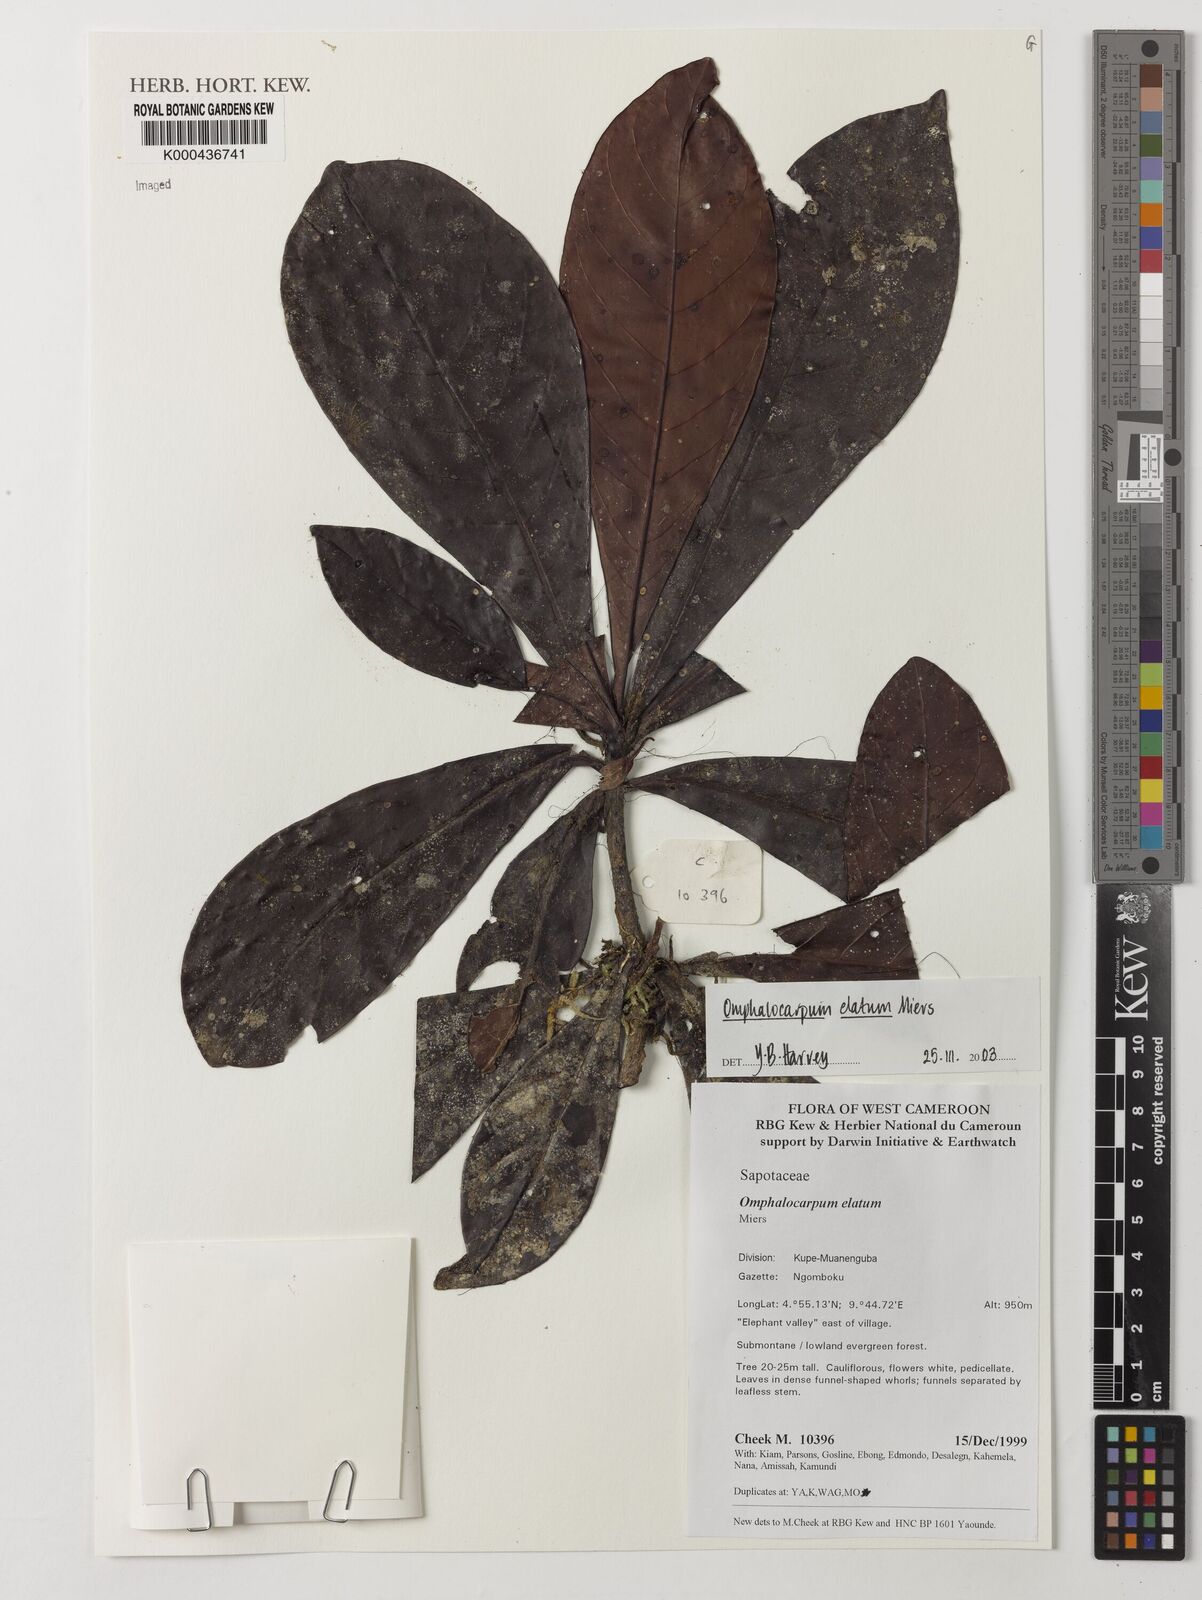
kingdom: Plantae
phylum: Tracheophyta
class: Magnoliopsida
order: Ericales
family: Sapotaceae
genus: Omphalocarpum
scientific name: Omphalocarpum elatum
